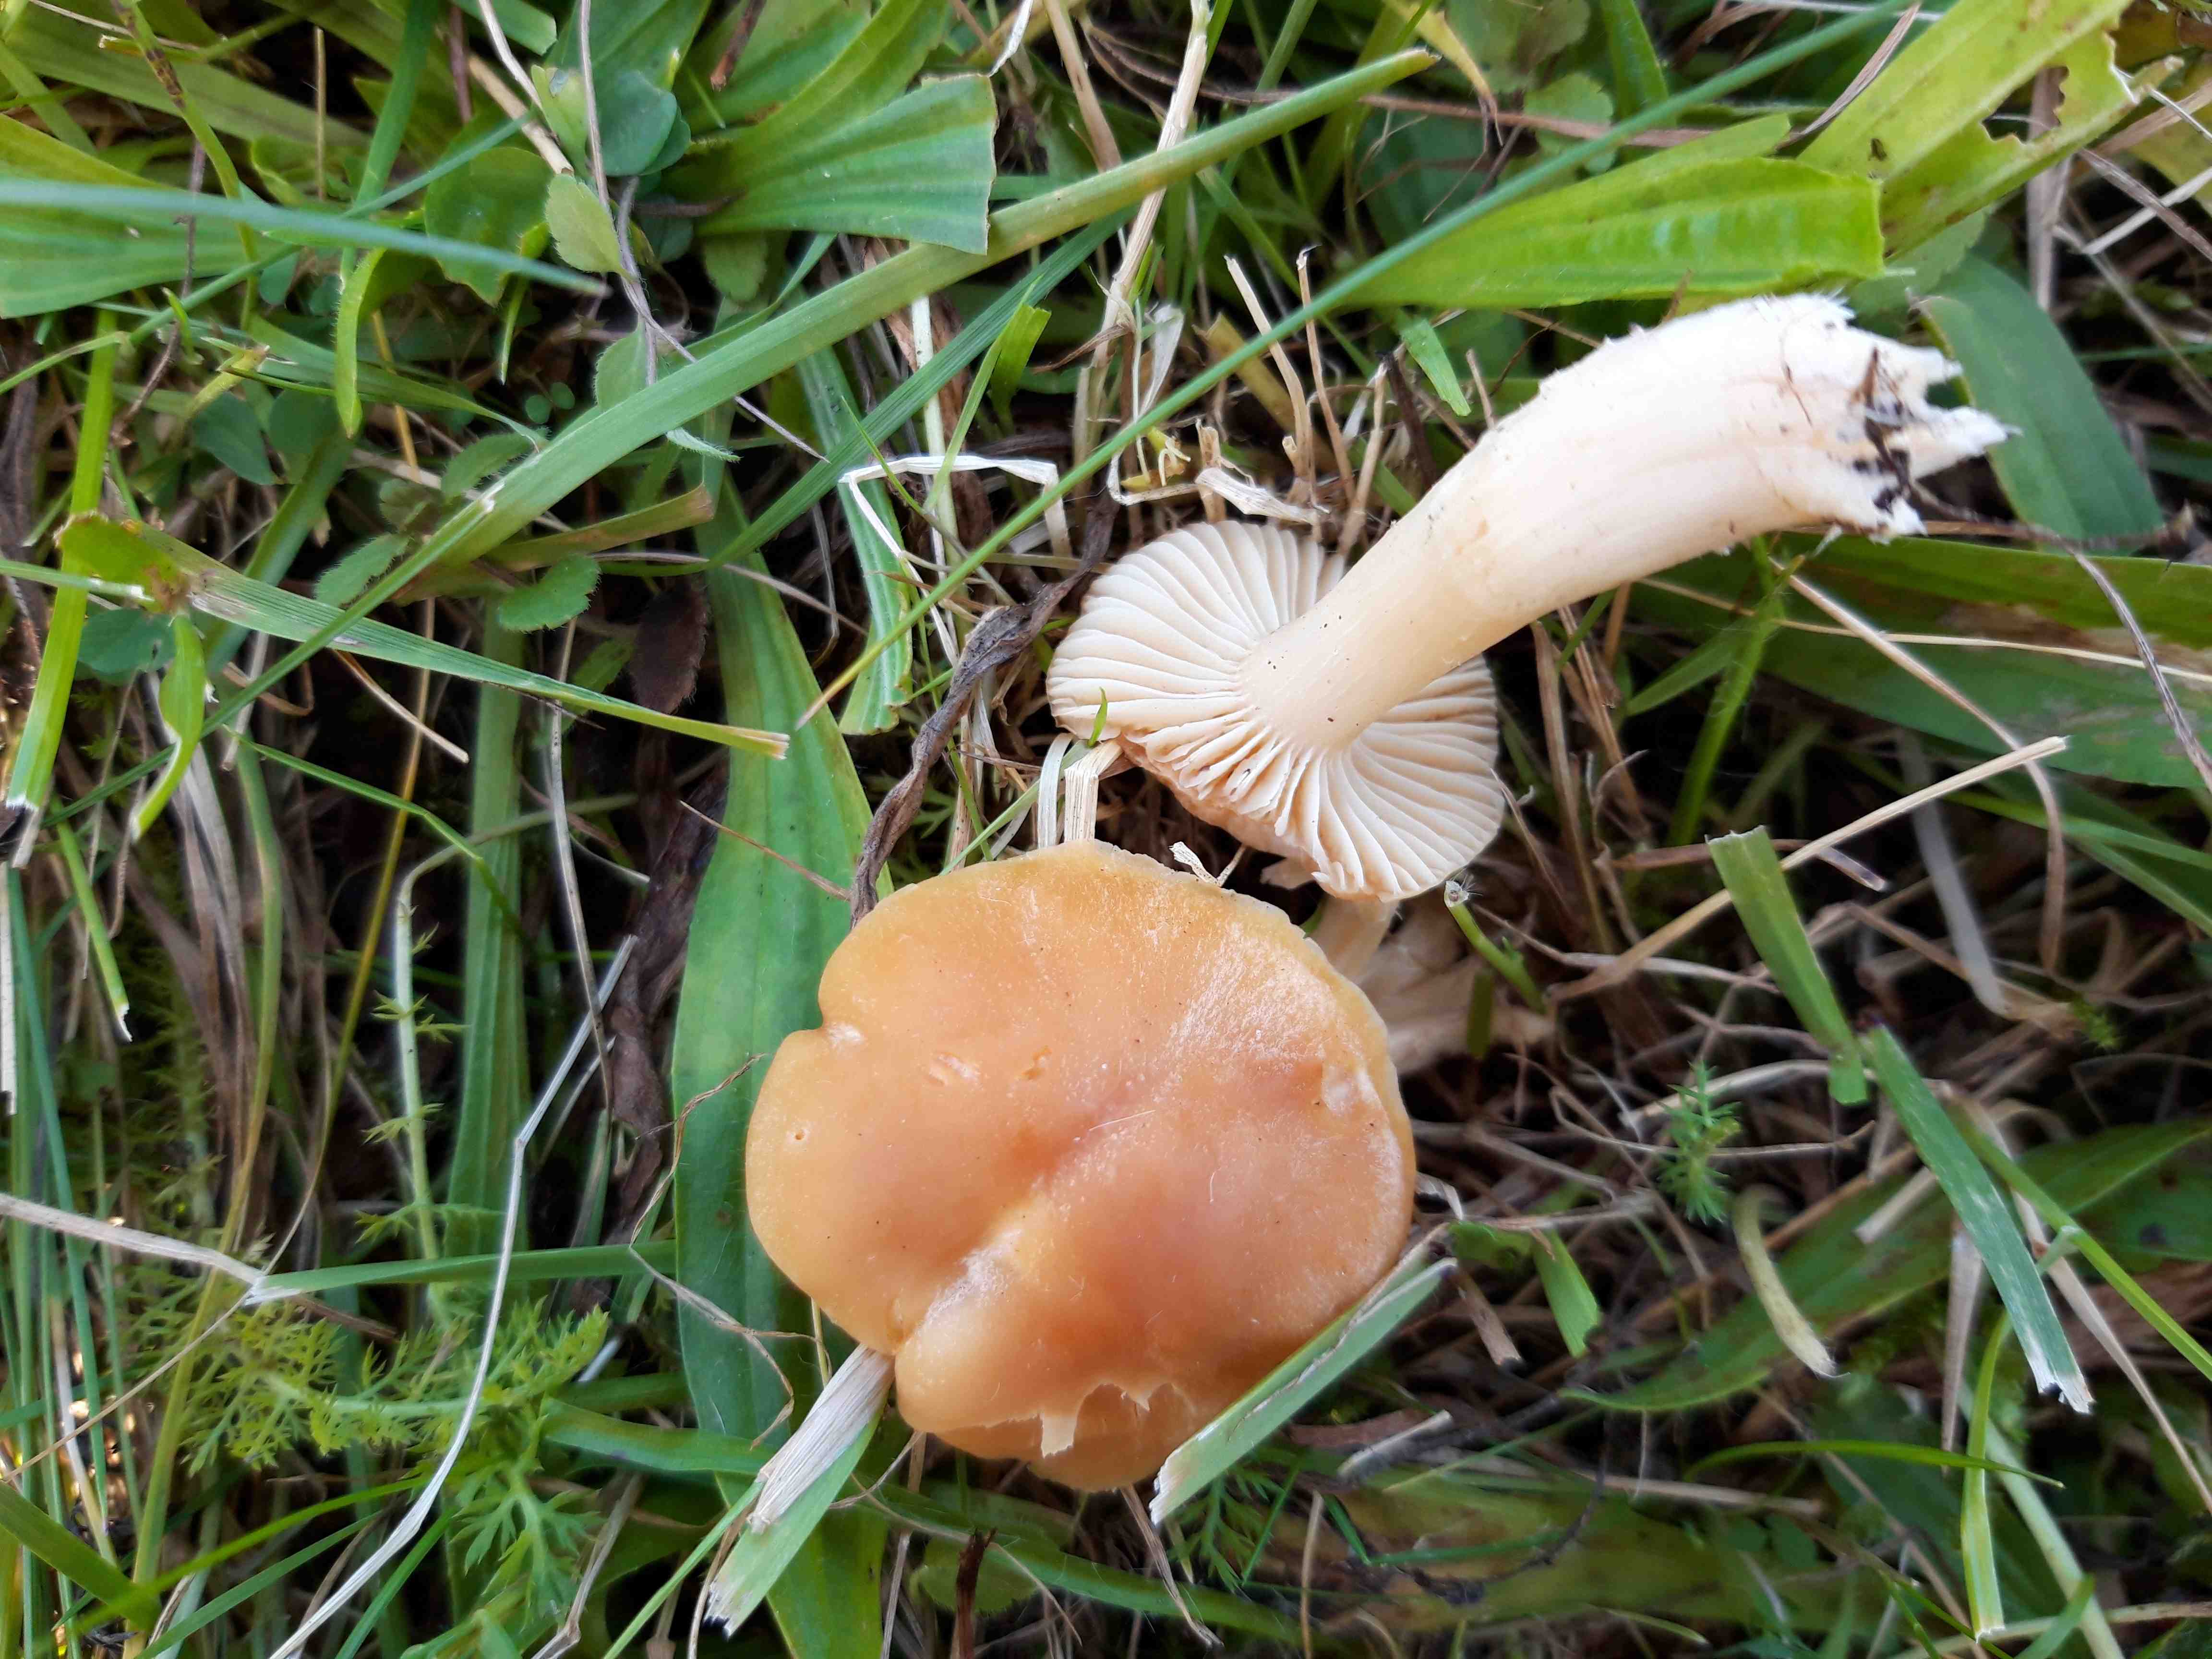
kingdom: Fungi
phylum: Basidiomycota
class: Agaricomycetes
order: Agaricales
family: Hygrophoraceae
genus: Cuphophyllus
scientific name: Cuphophyllus pratensis
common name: eng-vokshat
